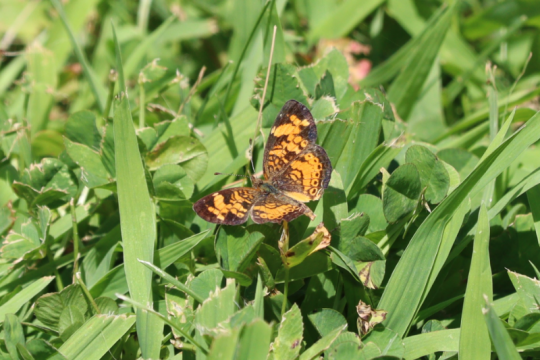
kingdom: Animalia
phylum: Arthropoda
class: Insecta
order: Lepidoptera
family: Nymphalidae
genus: Phyciodes
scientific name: Phyciodes
